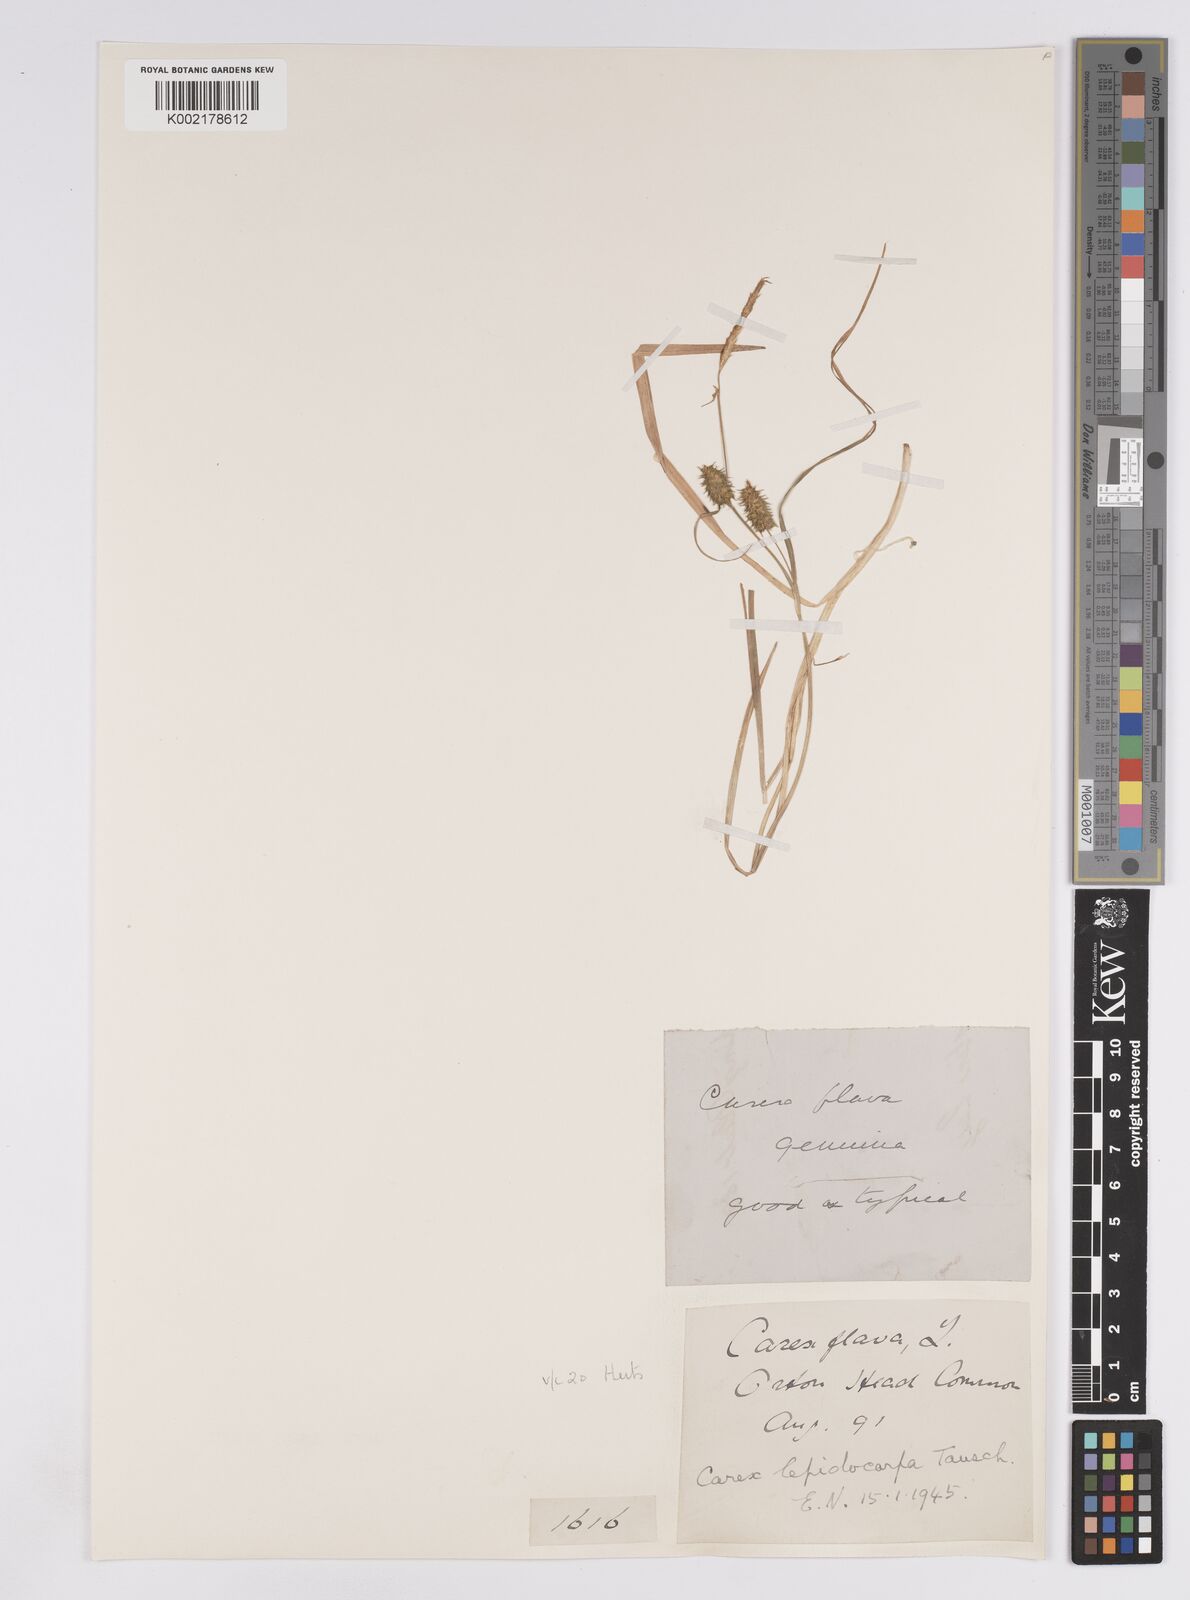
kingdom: Plantae
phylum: Tracheophyta
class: Liliopsida
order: Poales
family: Cyperaceae
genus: Carex
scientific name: Carex lepidocarpa
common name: Long-stalked yellow-sedge
